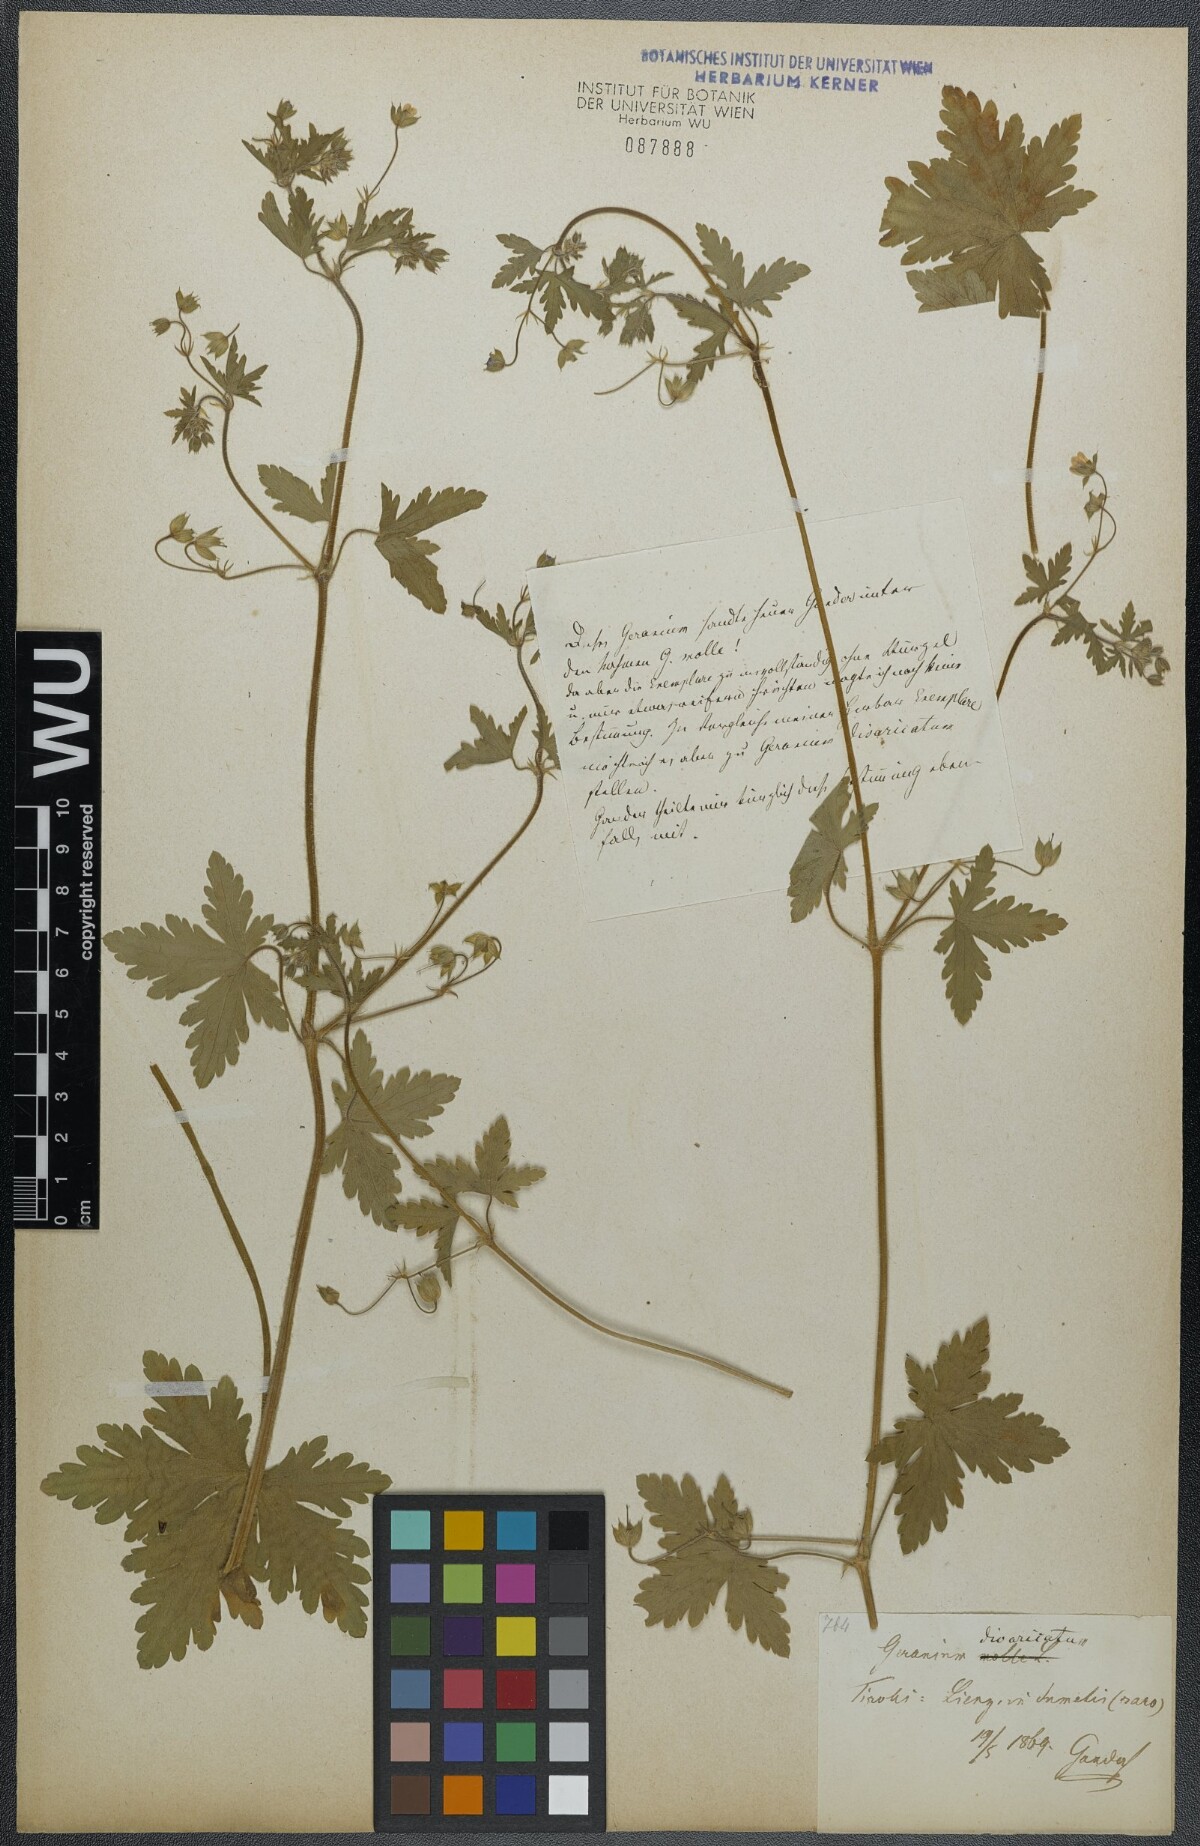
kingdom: Plantae
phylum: Tracheophyta
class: Magnoliopsida
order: Geraniales
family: Geraniaceae
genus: Geranium
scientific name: Geranium divaricatum
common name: Spreading crane's-bill
